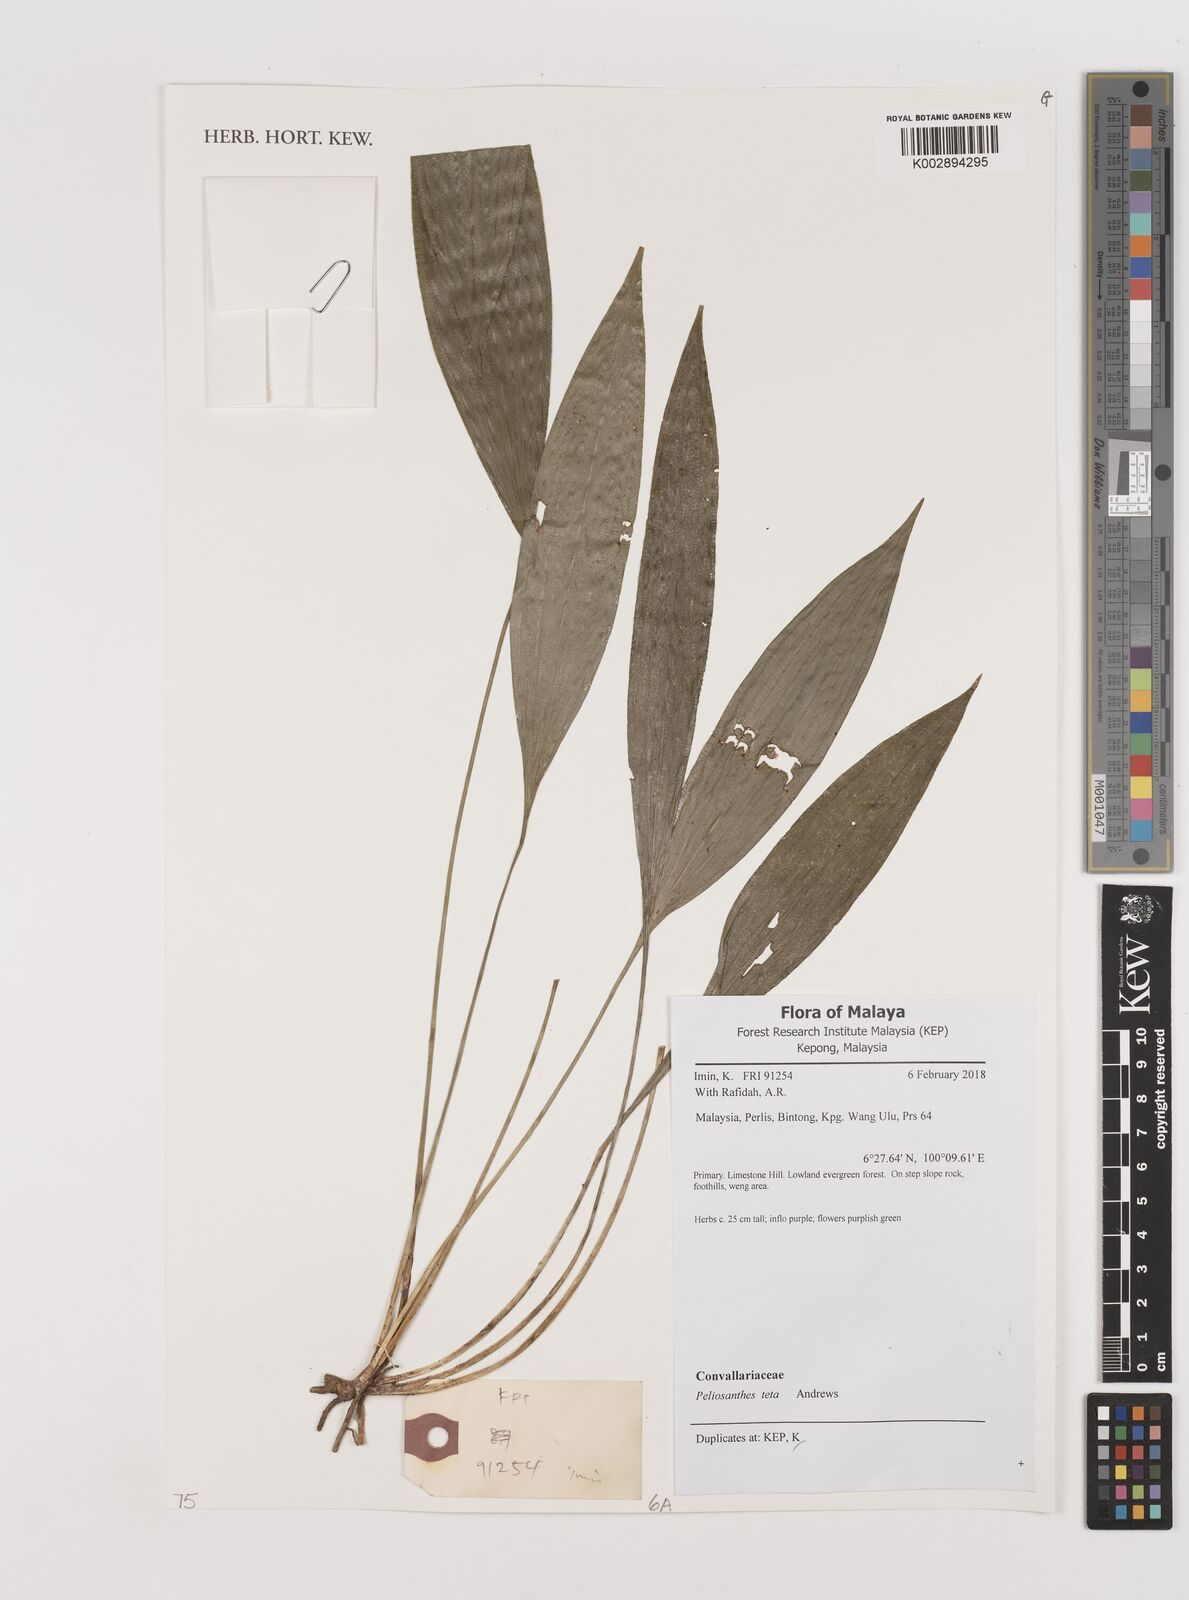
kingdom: Plantae
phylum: Tracheophyta
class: Liliopsida
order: Asparagales
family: Asparagaceae
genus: Peliosanthes
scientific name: Peliosanthes teta
